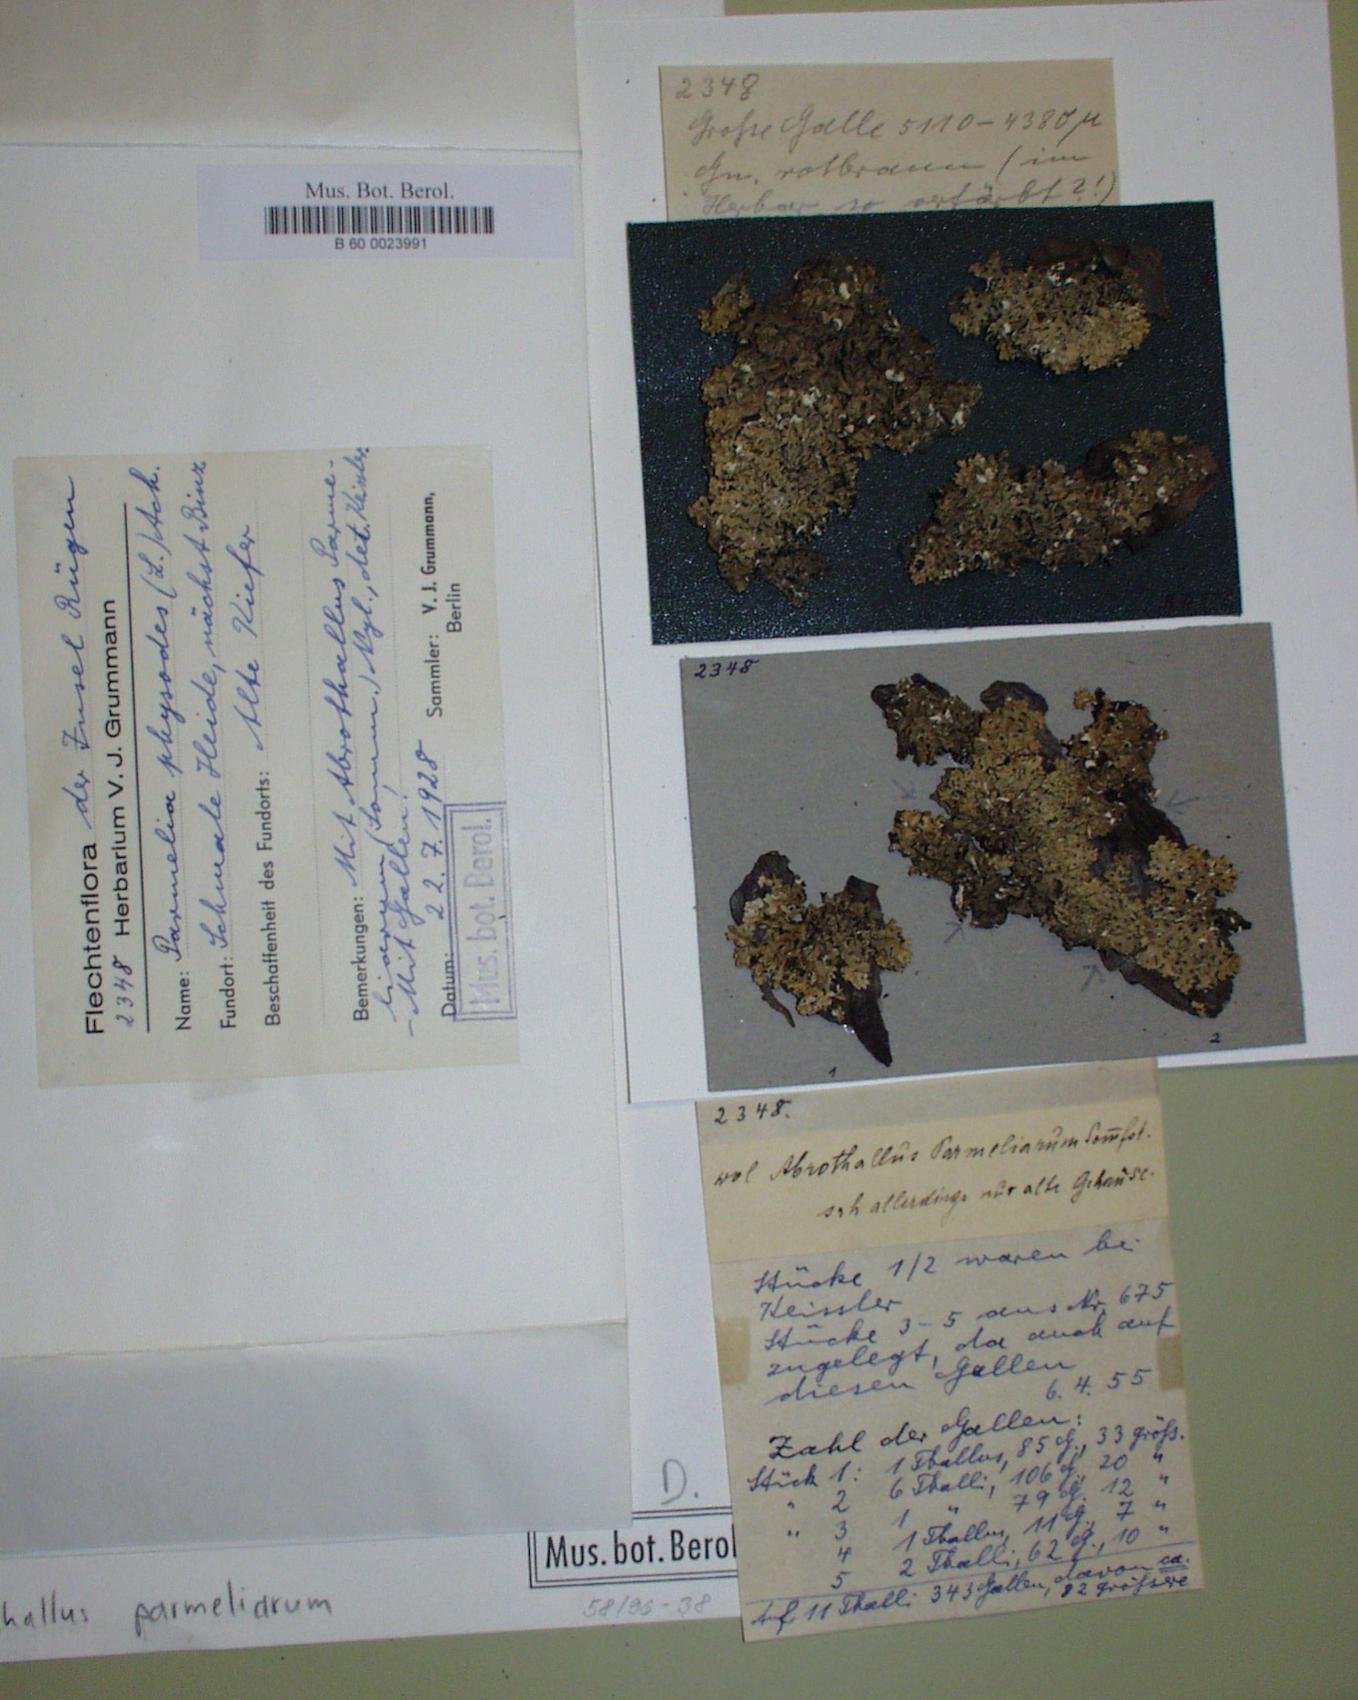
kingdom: Fungi
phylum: Ascomycota
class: Dothideomycetes
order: Abrothallales
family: Abrothallaceae
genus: Abrothallus
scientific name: Abrothallus parmeliarum
